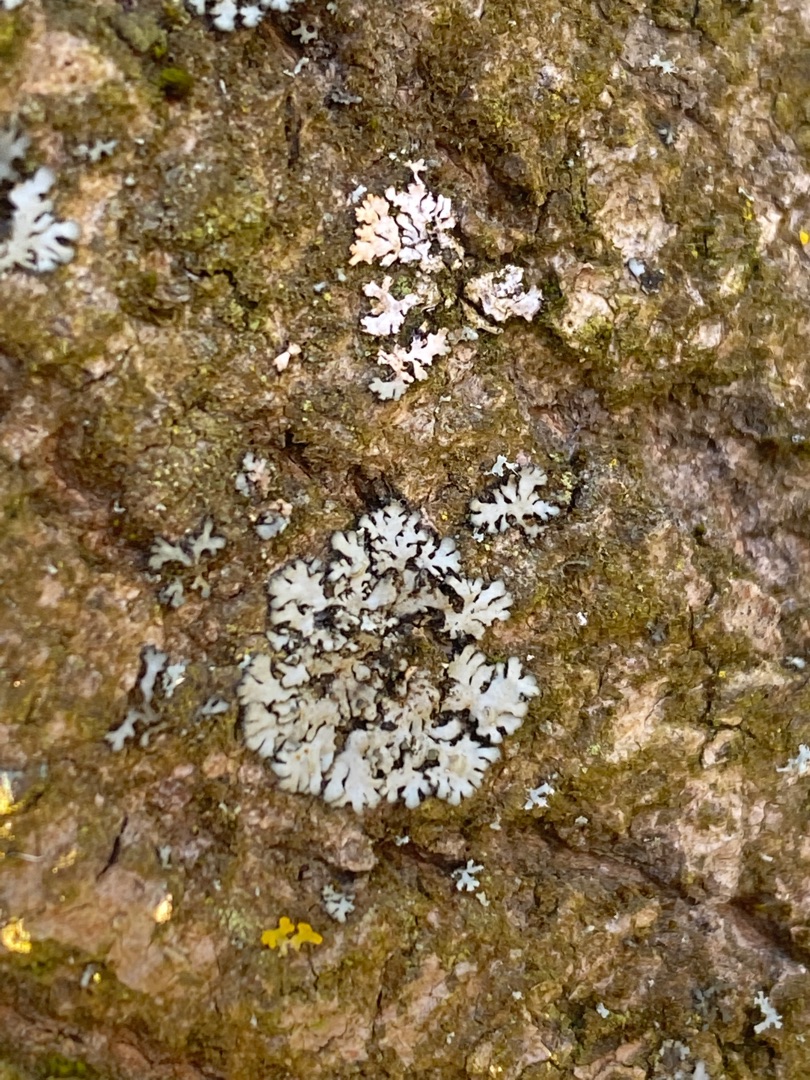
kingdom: Fungi
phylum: Ascomycota
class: Lecanoromycetes
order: Caliciales
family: Physciaceae
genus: Physconia
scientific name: Physconia
